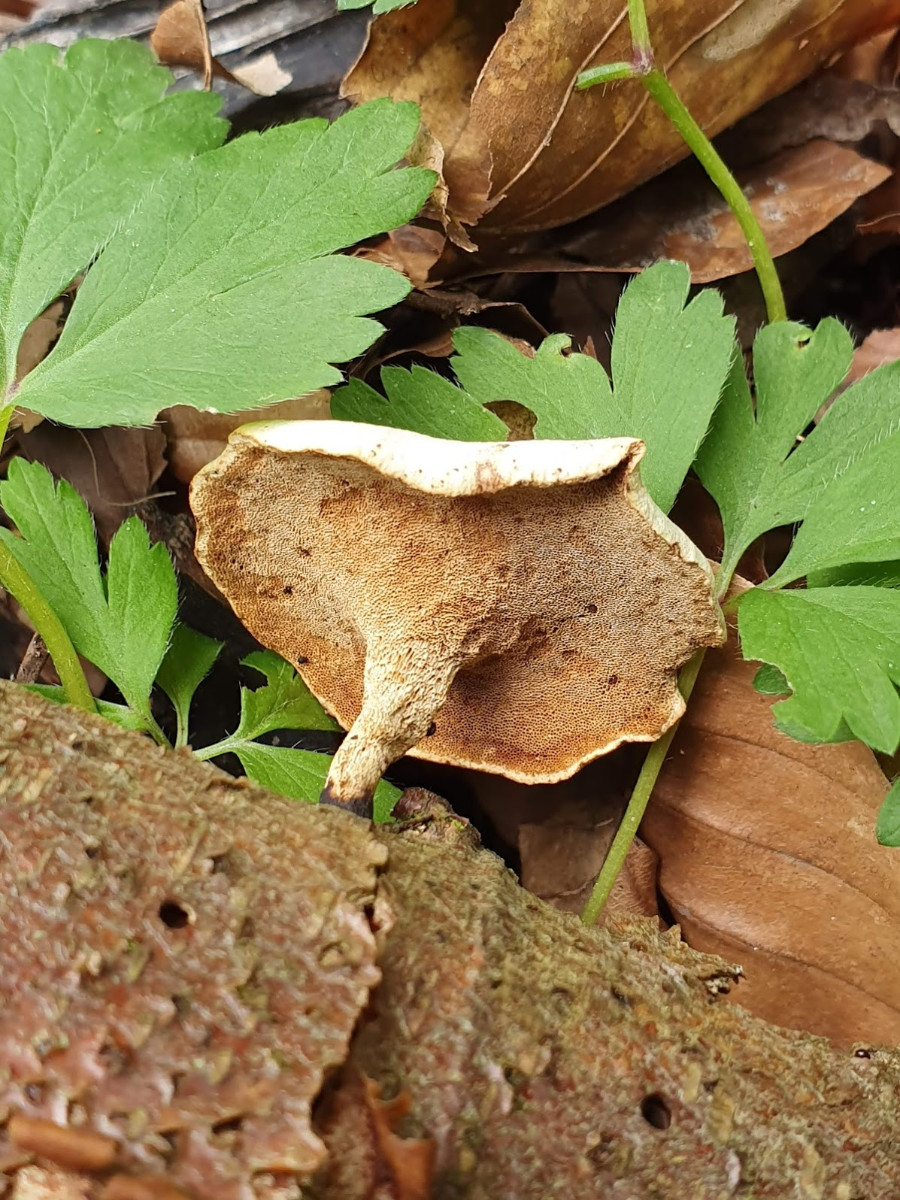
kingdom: Fungi
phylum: Basidiomycota
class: Agaricomycetes
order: Polyporales
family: Polyporaceae
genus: Cerioporus
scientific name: Cerioporus varius
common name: foranderlig stilkporesvamp
